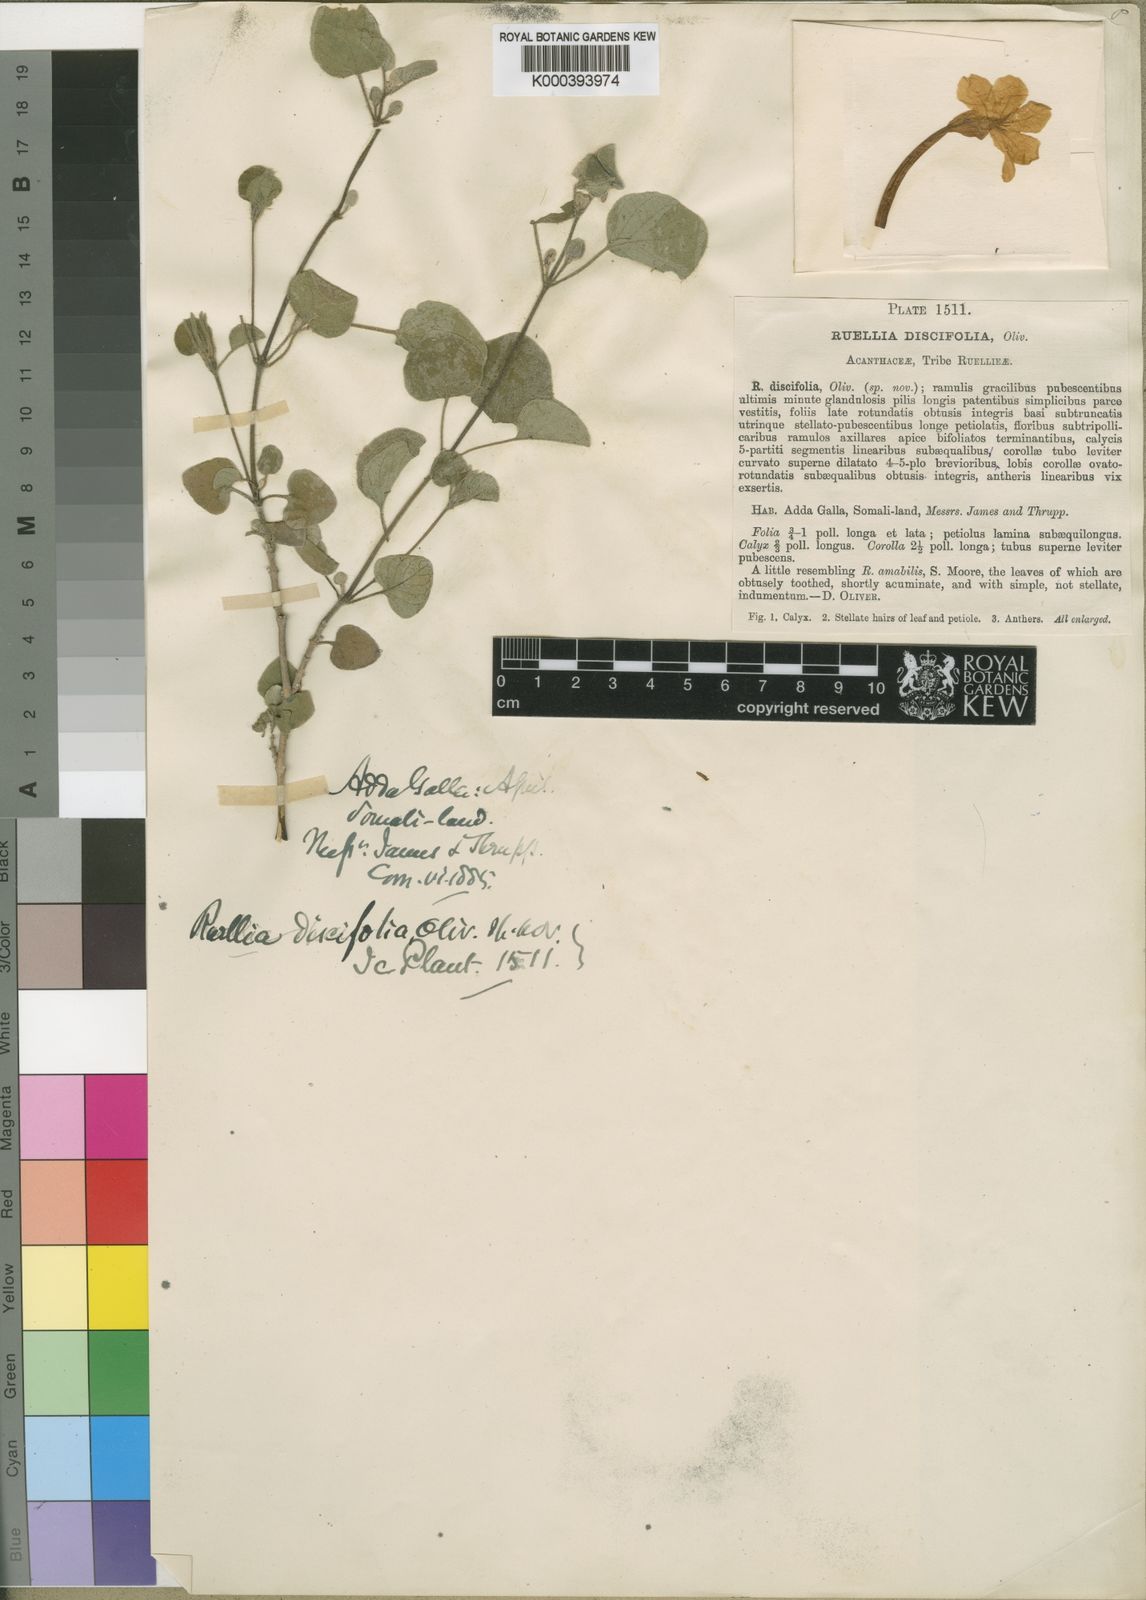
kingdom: Plantae
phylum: Tracheophyta
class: Magnoliopsida
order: Lamiales
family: Acanthaceae
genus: Ruellia
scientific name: Ruellia discifolia
